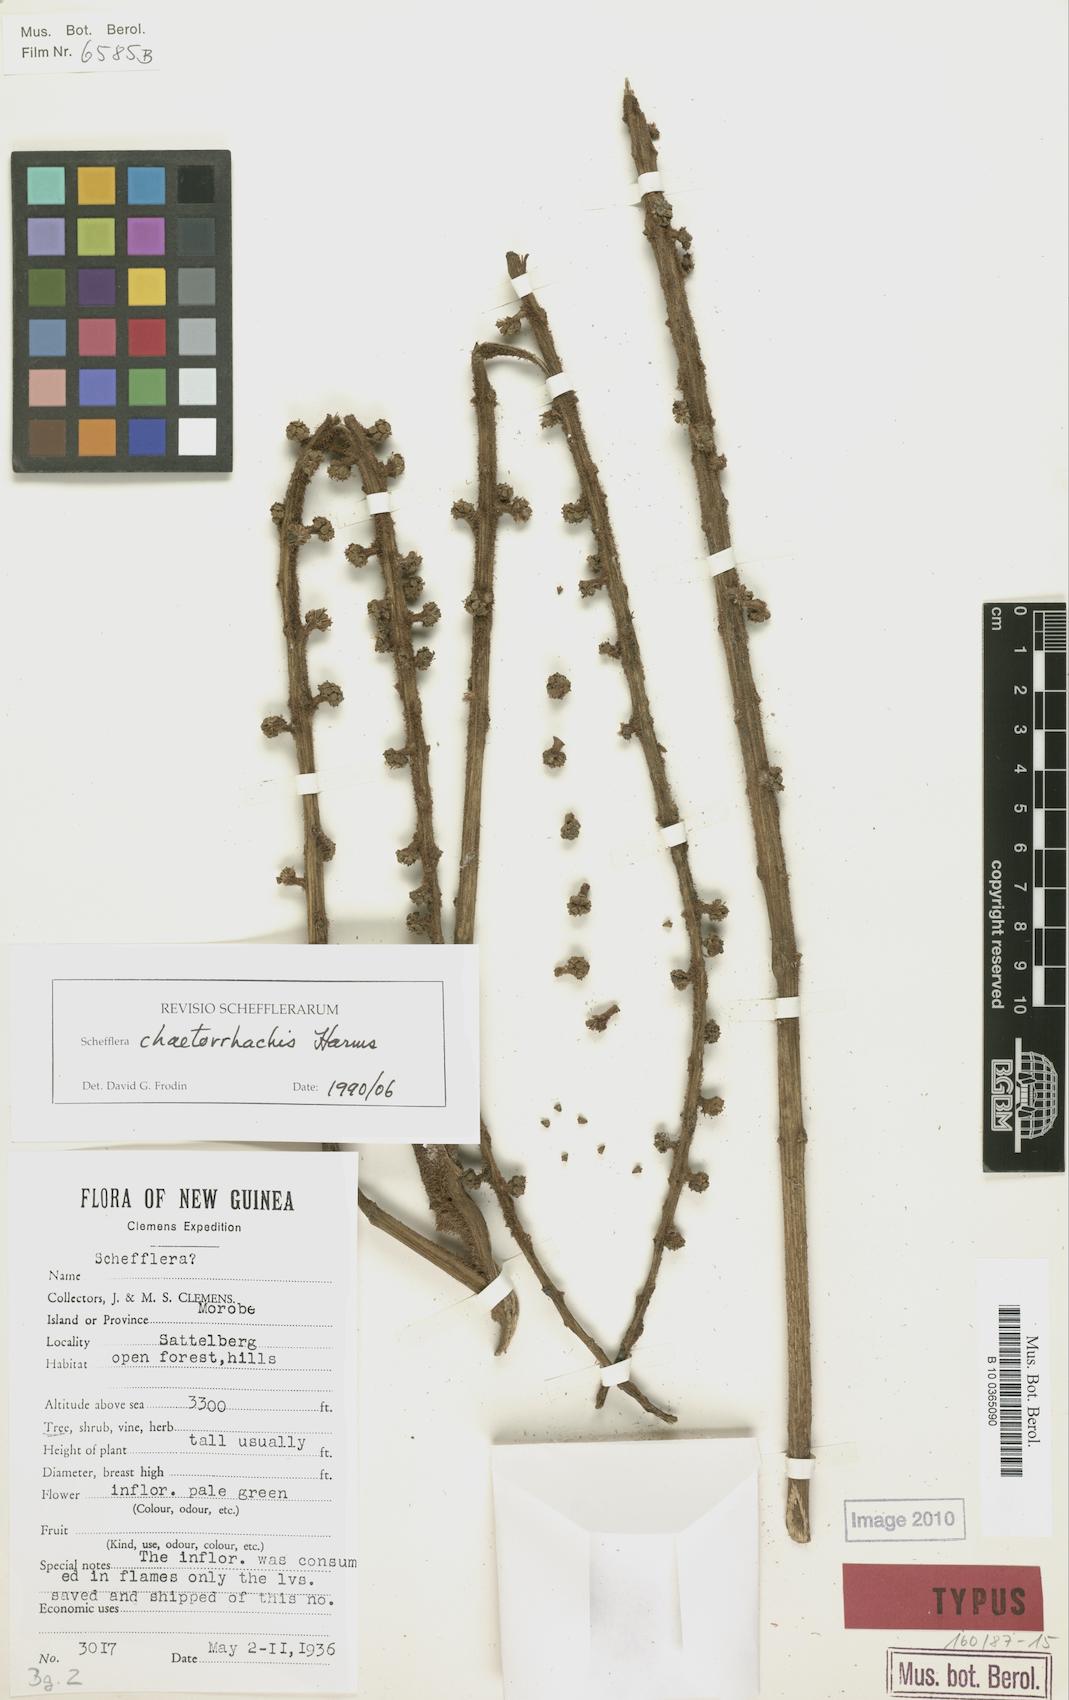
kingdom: Plantae
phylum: Tracheophyta
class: Magnoliopsida
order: Apiales
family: Araliaceae
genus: Heptapleurum
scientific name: Heptapleurum chaetorrhachis
